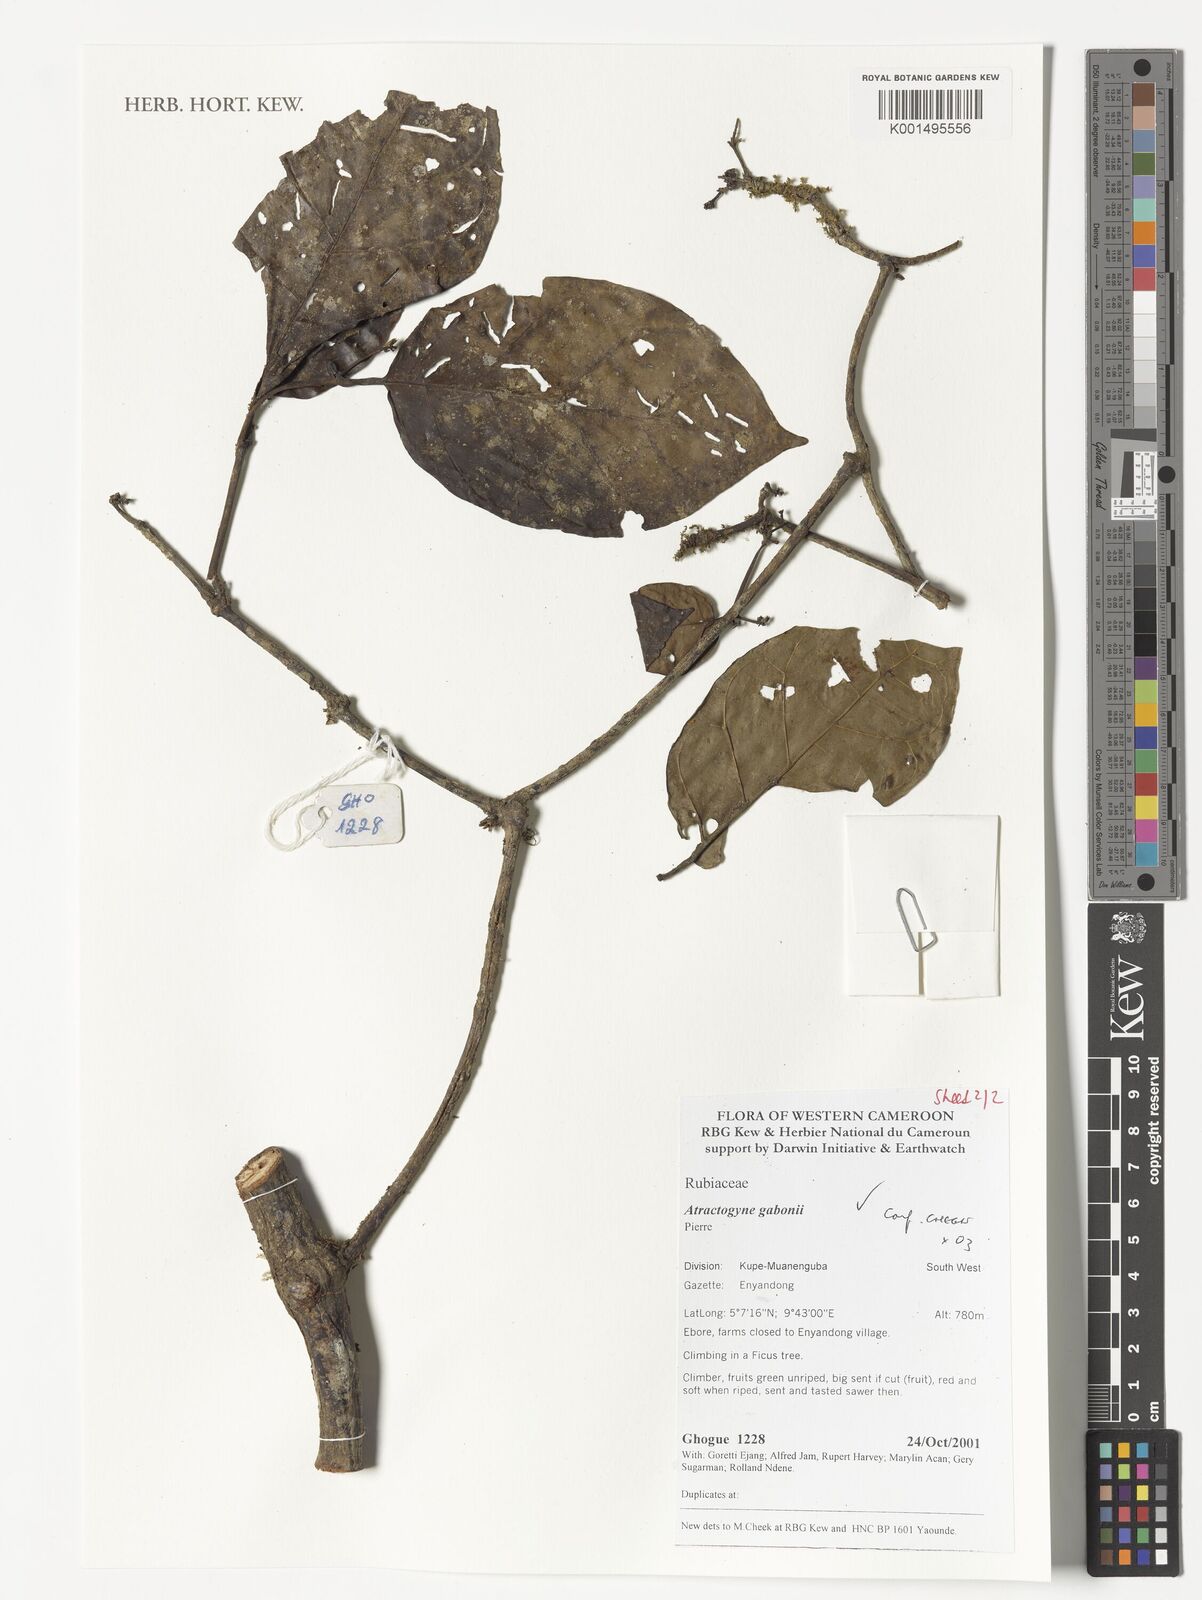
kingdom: Plantae
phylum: Tracheophyta
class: Magnoliopsida
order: Gentianales
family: Rubiaceae
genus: Atractogyne
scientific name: Atractogyne gabonii
